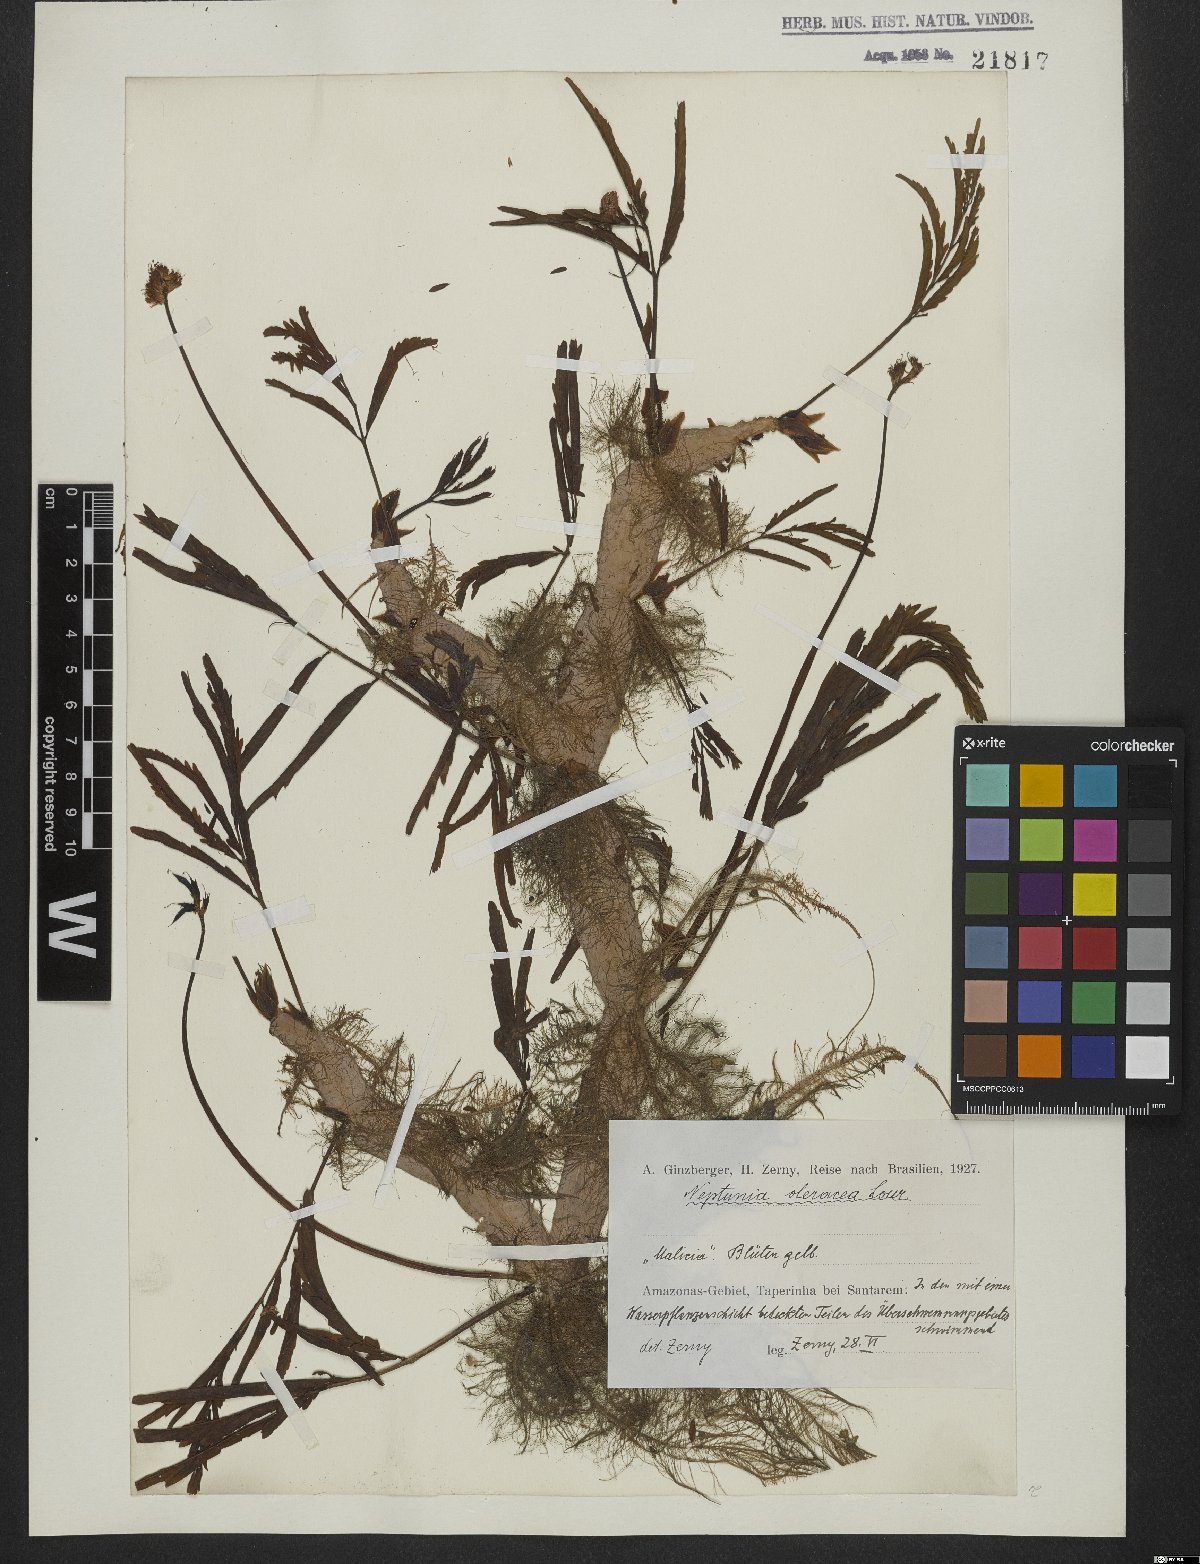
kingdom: Plantae
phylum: Tracheophyta
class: Magnoliopsida
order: Fabales
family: Fabaceae
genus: Neptunia
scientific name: Neptunia prostrata
